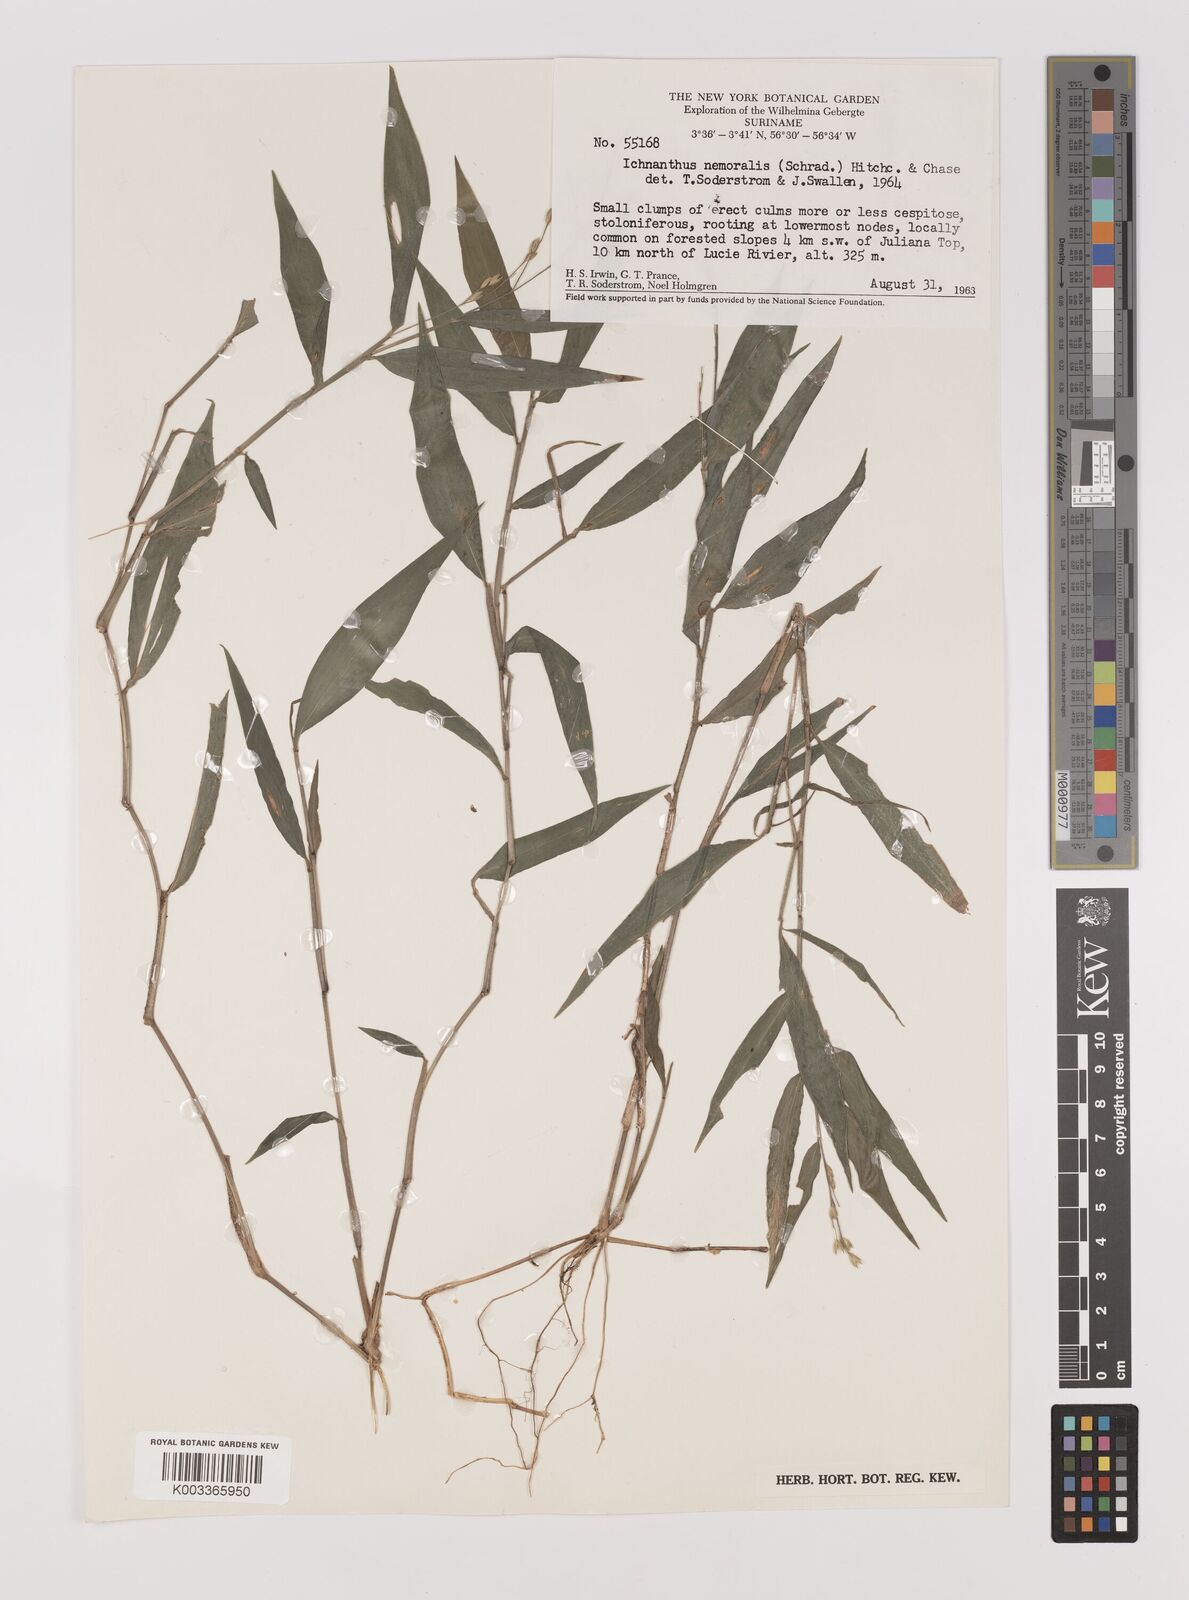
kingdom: Plantae
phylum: Tracheophyta
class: Liliopsida
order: Poales
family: Poaceae
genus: Ichnanthus
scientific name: Ichnanthus nemoralis
